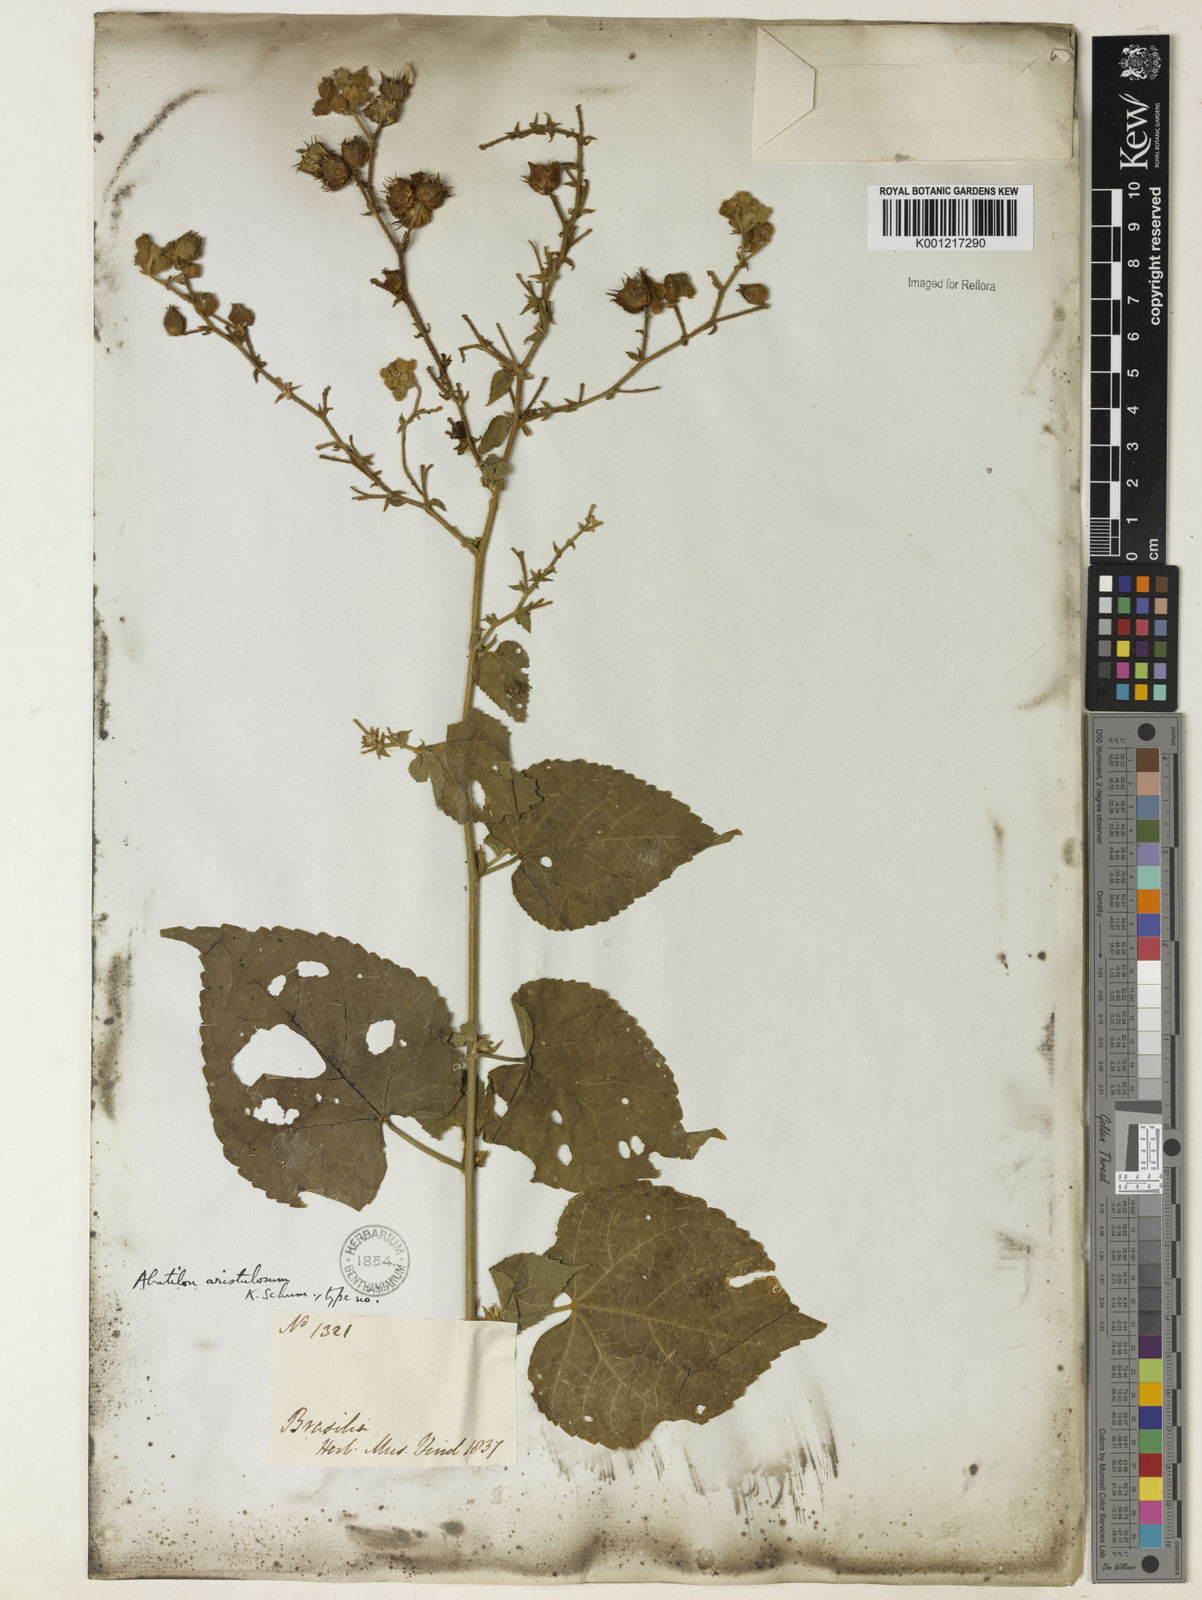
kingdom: Plantae
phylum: Tracheophyta
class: Magnoliopsida
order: Malvales
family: Malvaceae
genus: Pseudabutilon
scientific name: Pseudabutilon aristulosum
